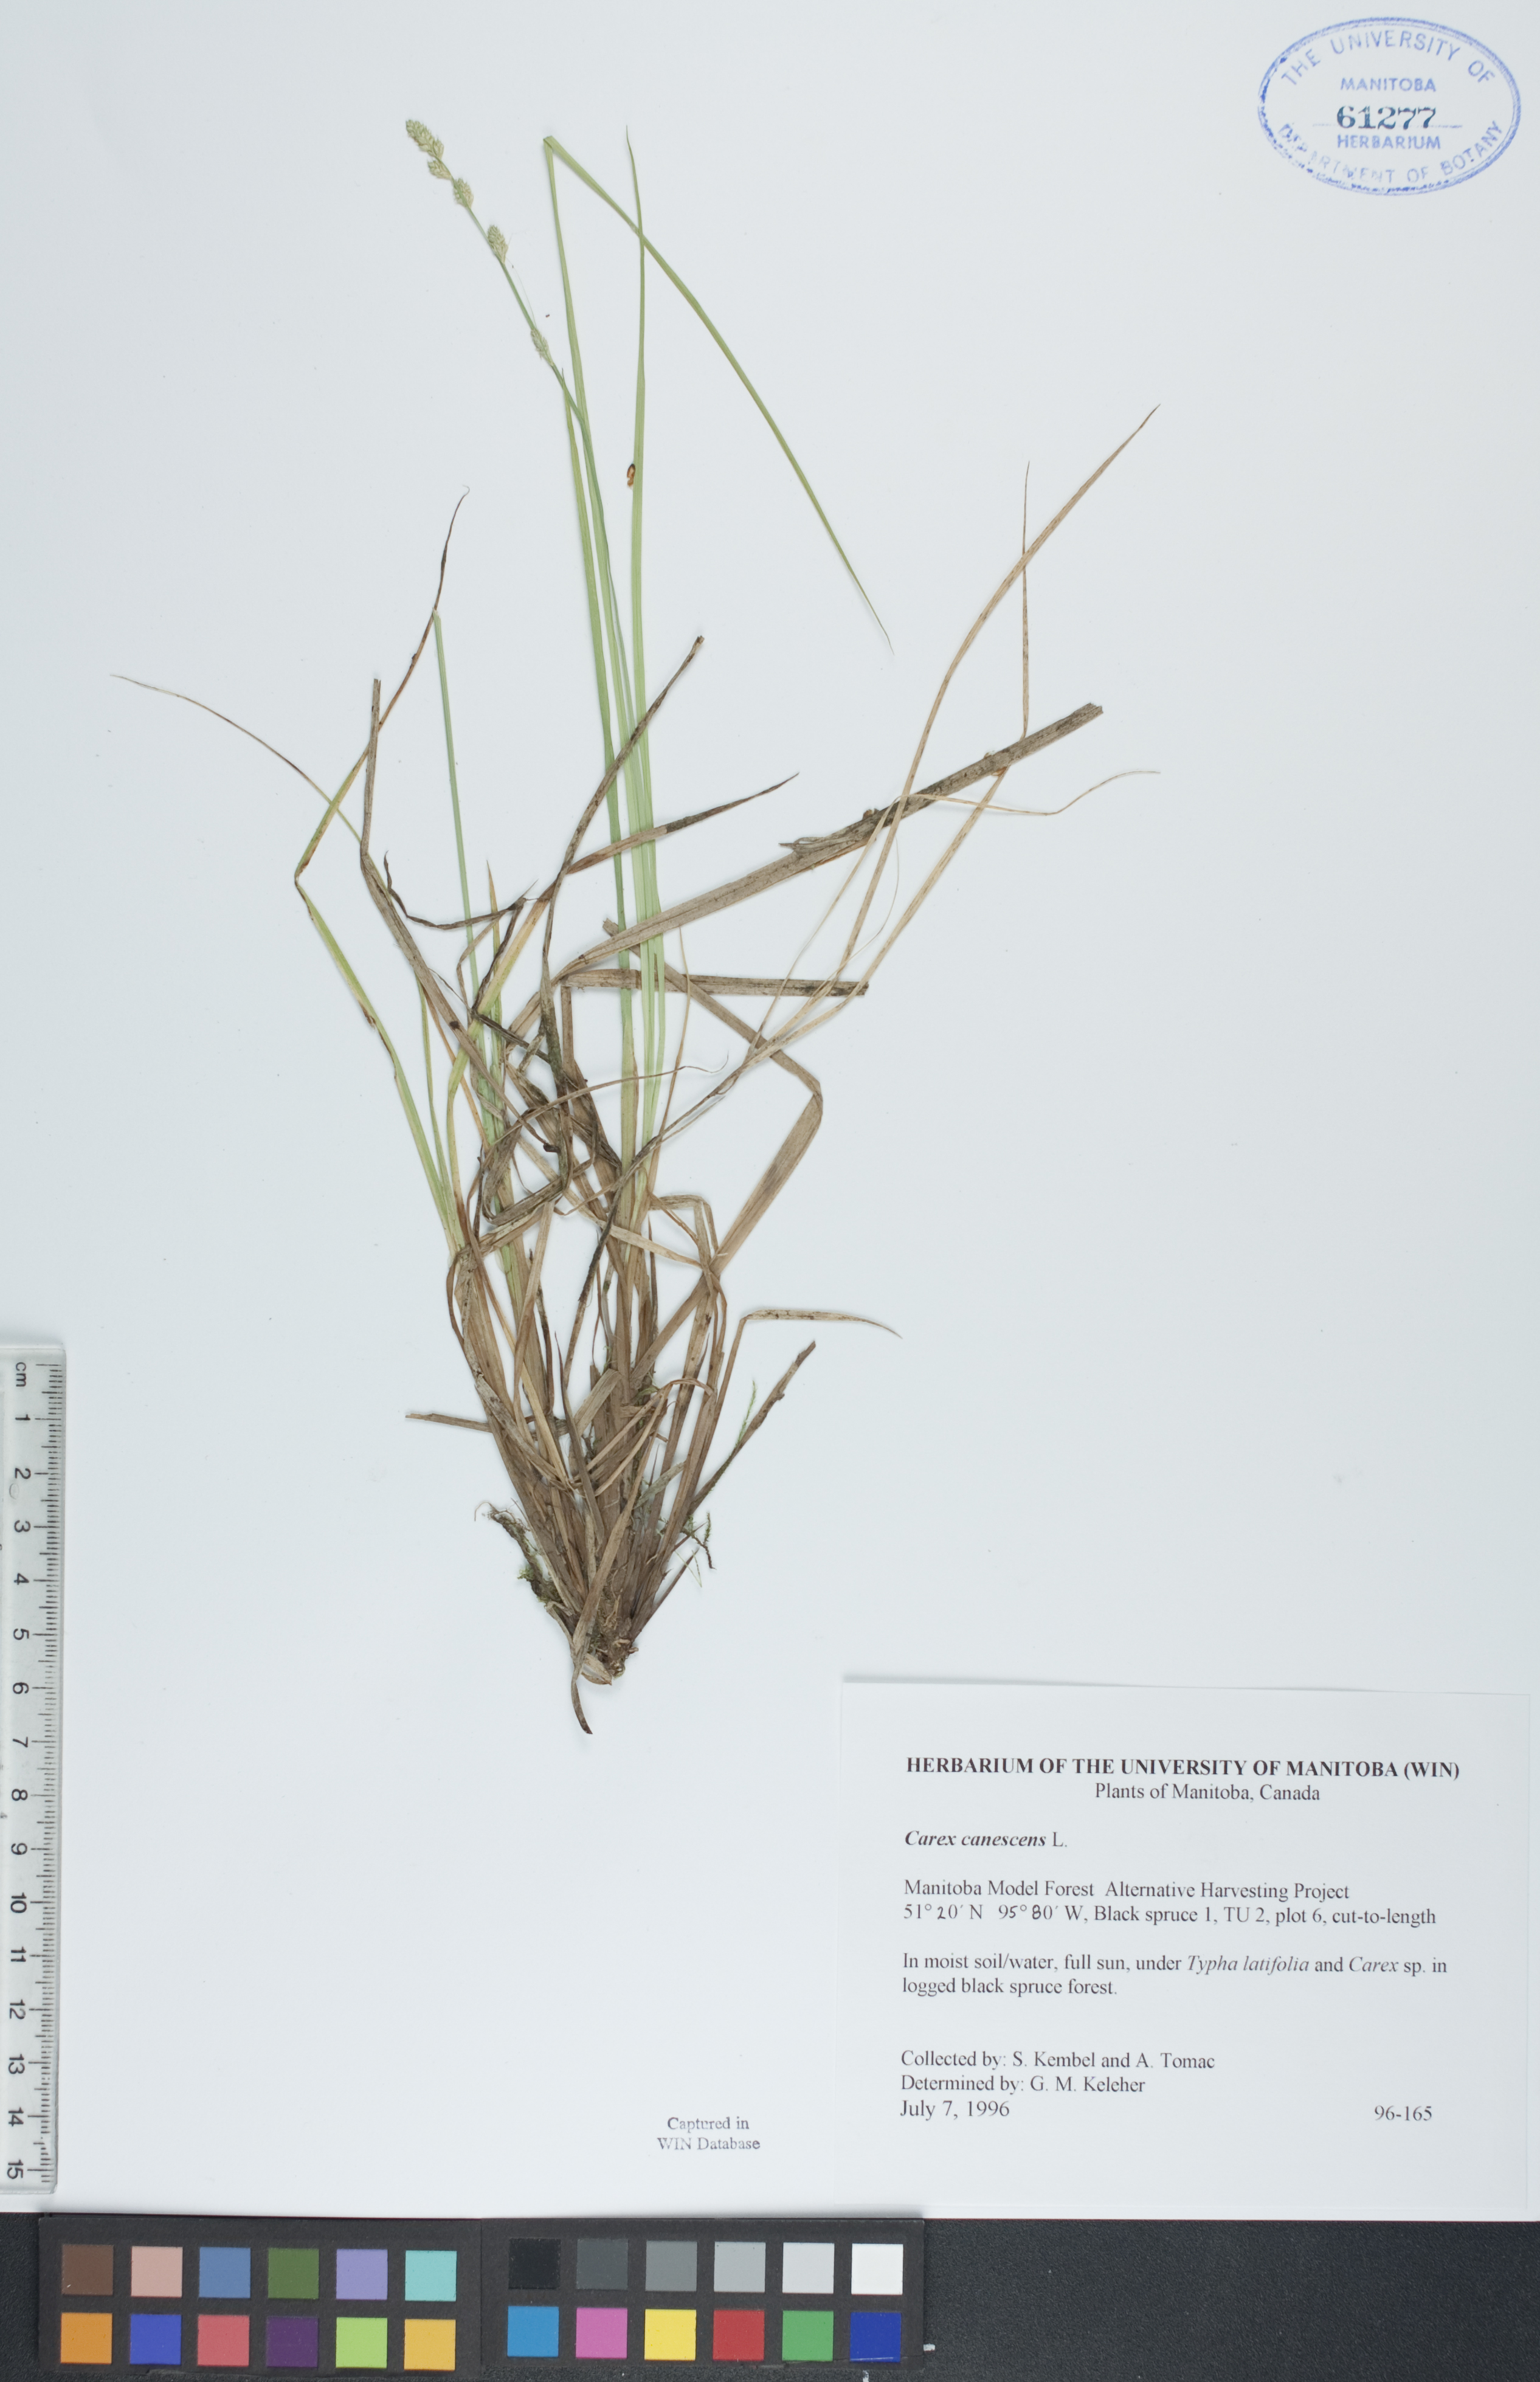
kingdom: Plantae
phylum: Tracheophyta
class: Liliopsida
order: Poales
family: Cyperaceae
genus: Carex
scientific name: Carex canescens
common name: White sedge
